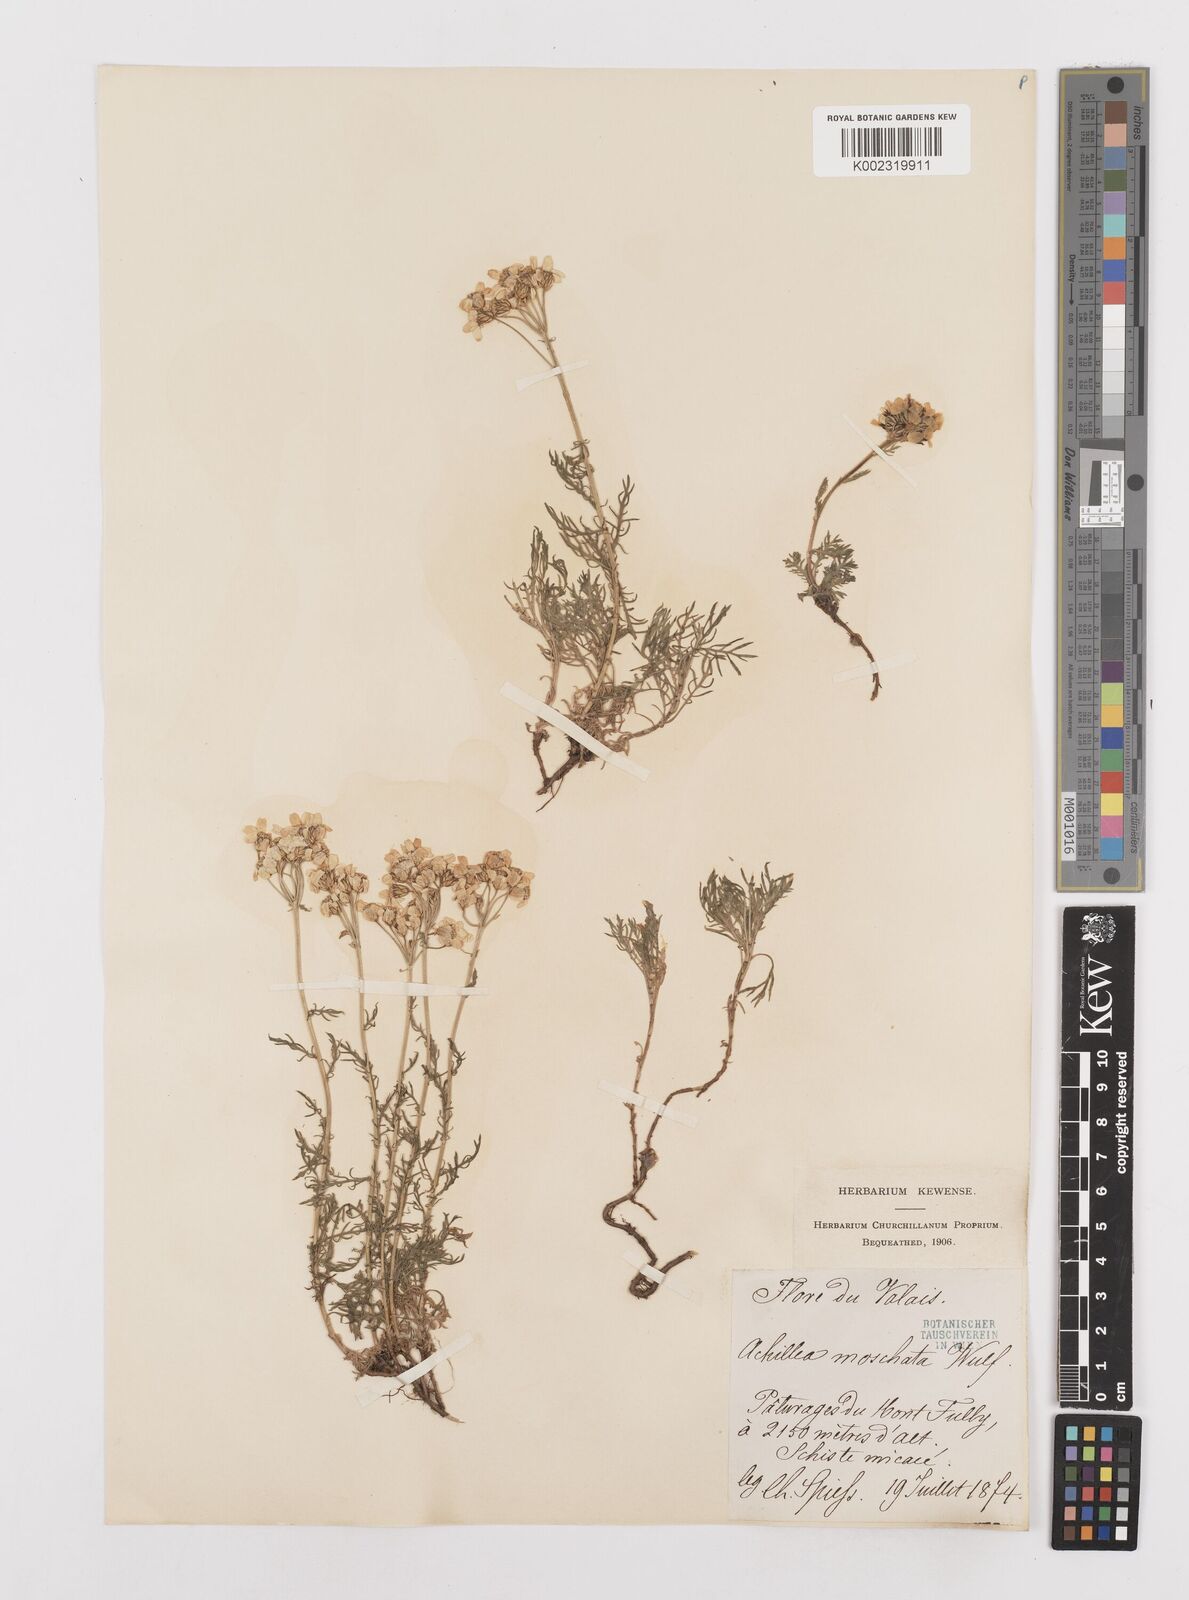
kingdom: Plantae
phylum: Tracheophyta
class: Magnoliopsida
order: Asterales
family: Asteraceae
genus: Achillea
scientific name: Achillea erba-rotta
